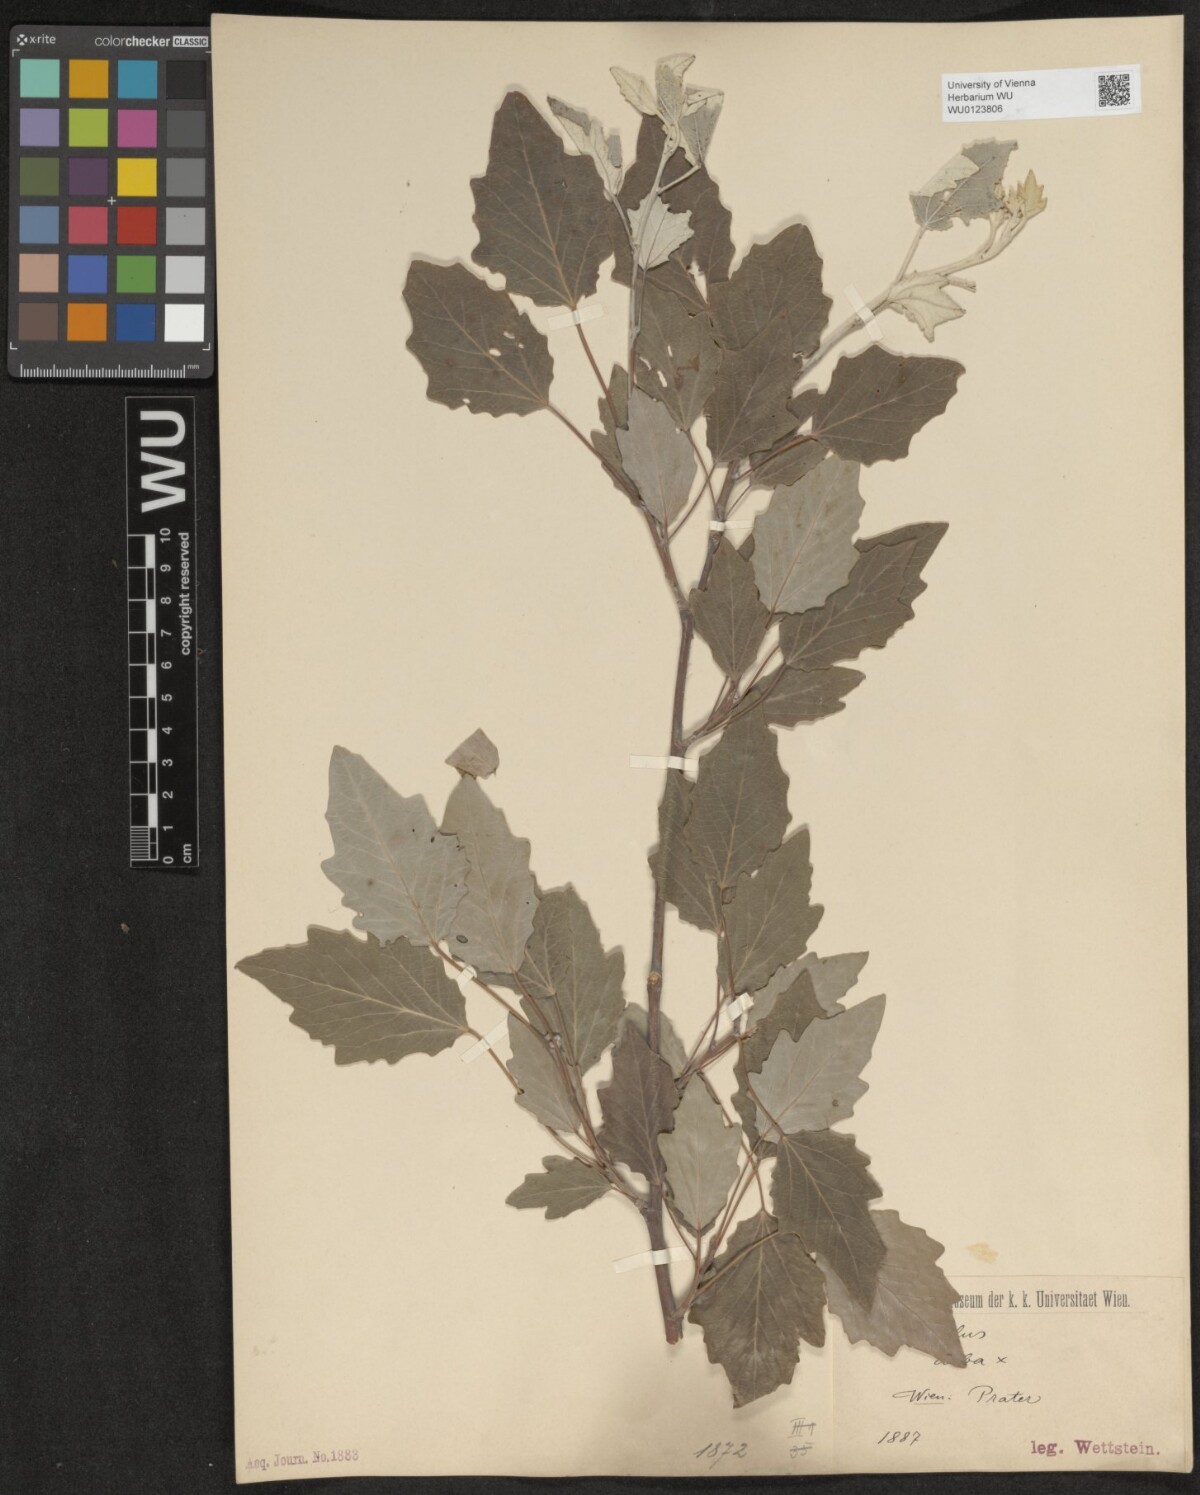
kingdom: Plantae
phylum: Tracheophyta
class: Magnoliopsida
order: Malpighiales
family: Salicaceae
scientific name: Salicaceae
